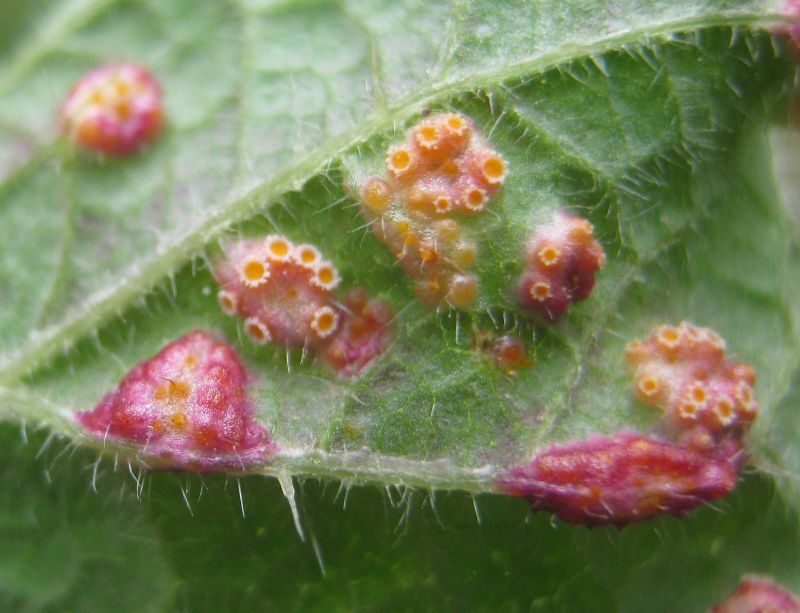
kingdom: Fungi
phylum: Basidiomycota
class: Pucciniomycetes
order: Pucciniales
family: Pucciniaceae
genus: Puccinia
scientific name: Puccinia urticata
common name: nældegalle-tvecellerust
